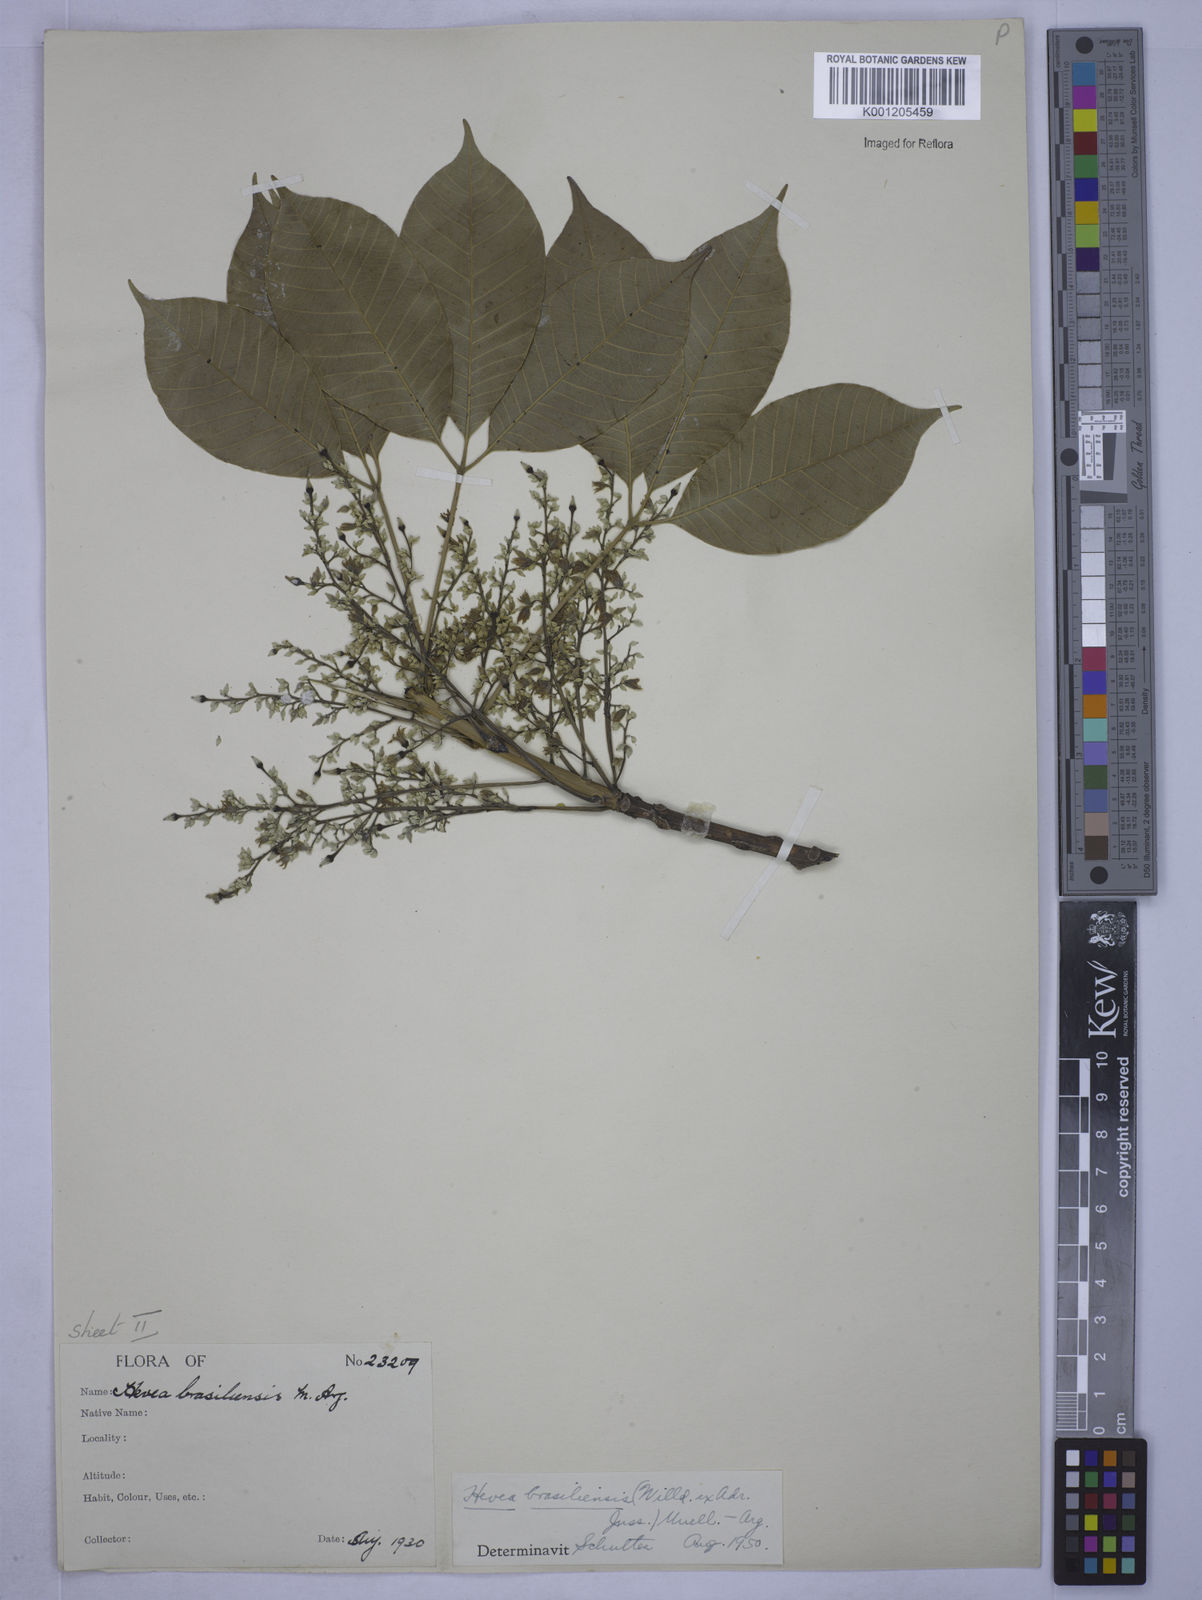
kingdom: Plantae
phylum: Tracheophyta
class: Magnoliopsida
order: Malpighiales
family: Euphorbiaceae
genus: Hevea
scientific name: Hevea
